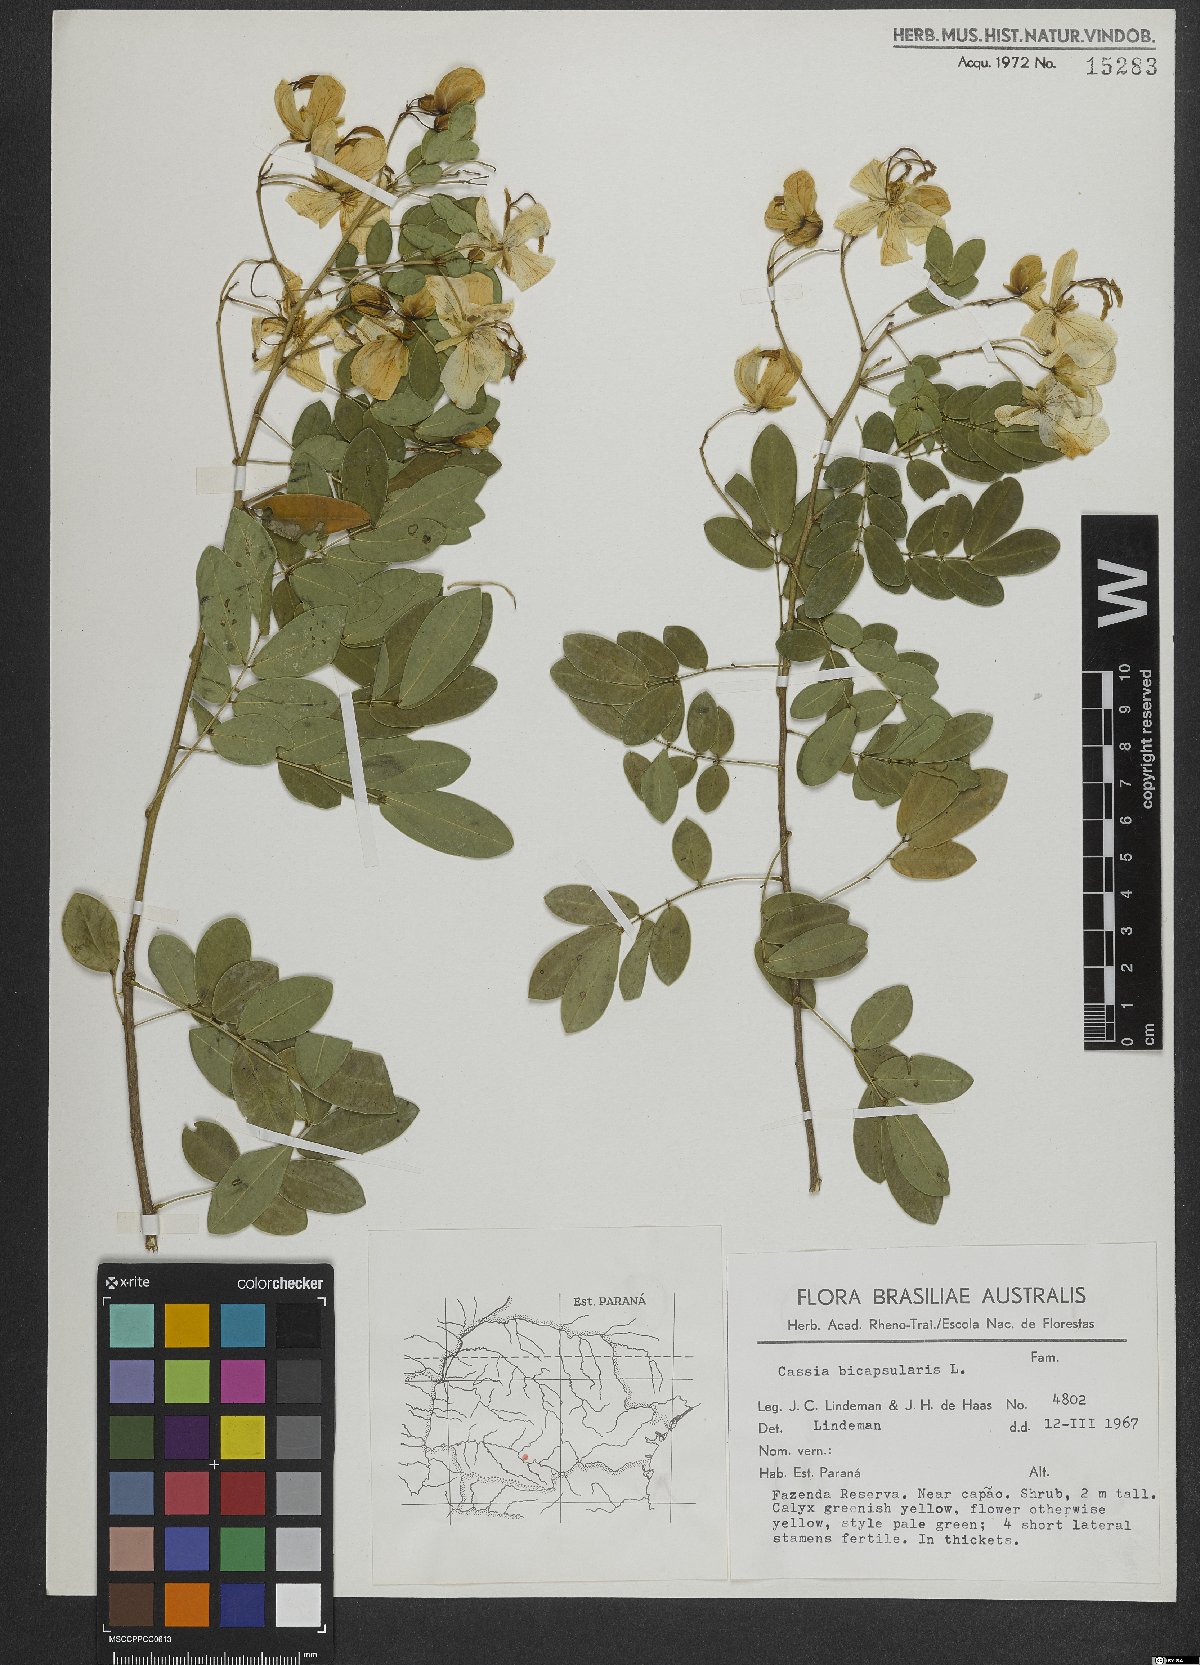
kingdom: Plantae
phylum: Tracheophyta
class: Magnoliopsida
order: Fabales
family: Fabaceae
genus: Senna
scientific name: Senna bicapsularis
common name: Christmasbush
